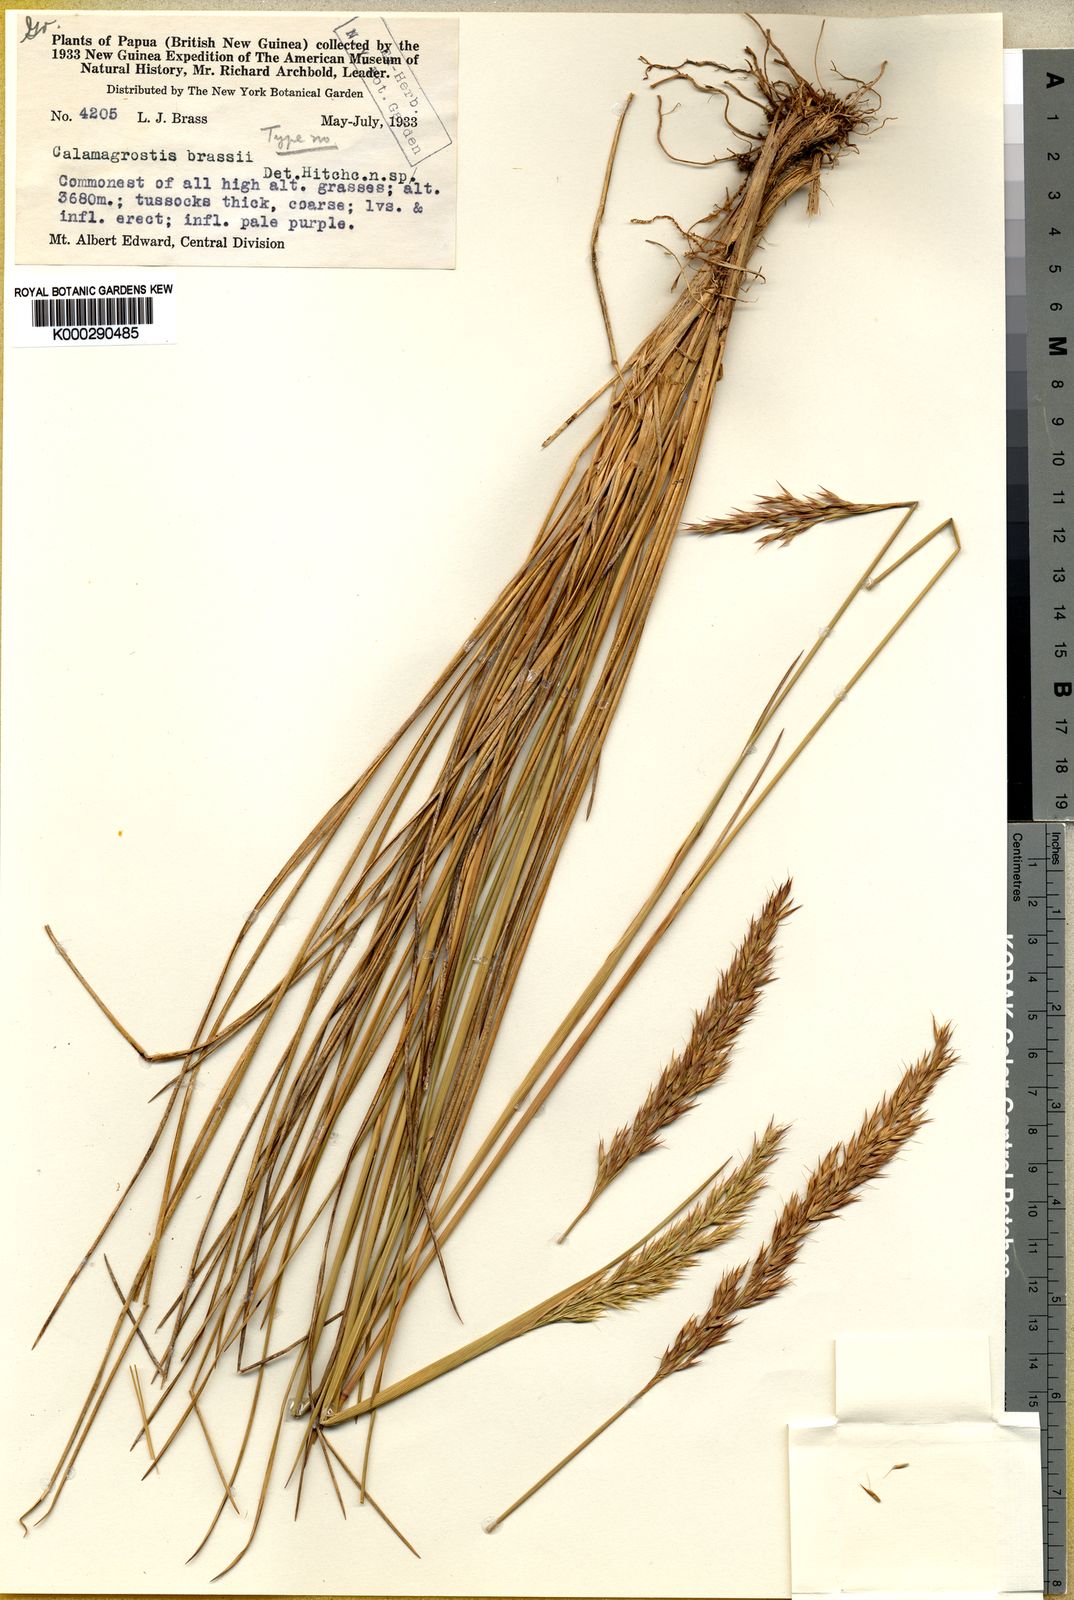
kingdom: Plantae
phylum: Tracheophyta
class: Liliopsida
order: Poales
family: Poaceae
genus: Calamagrostis
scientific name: Calamagrostis brassii
